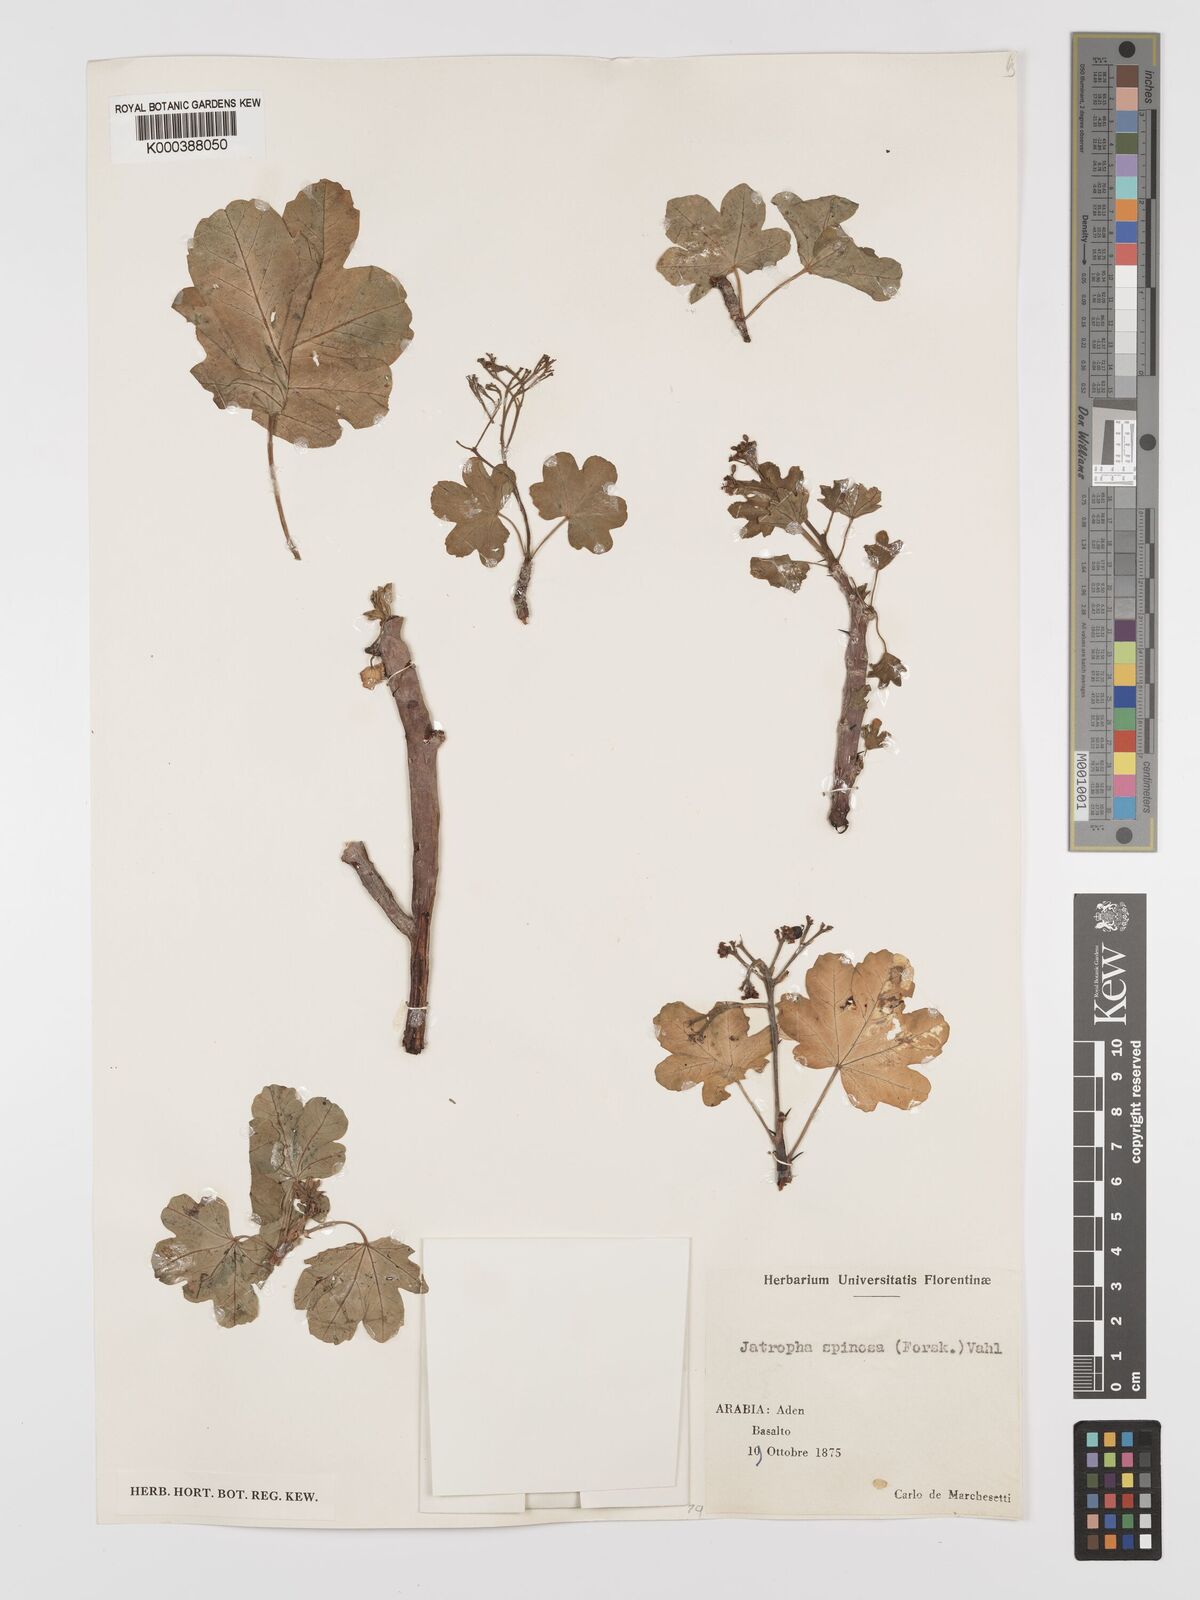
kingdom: Plantae
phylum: Tracheophyta
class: Magnoliopsida
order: Malpighiales
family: Euphorbiaceae
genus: Jatropha
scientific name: Jatropha spinosa
